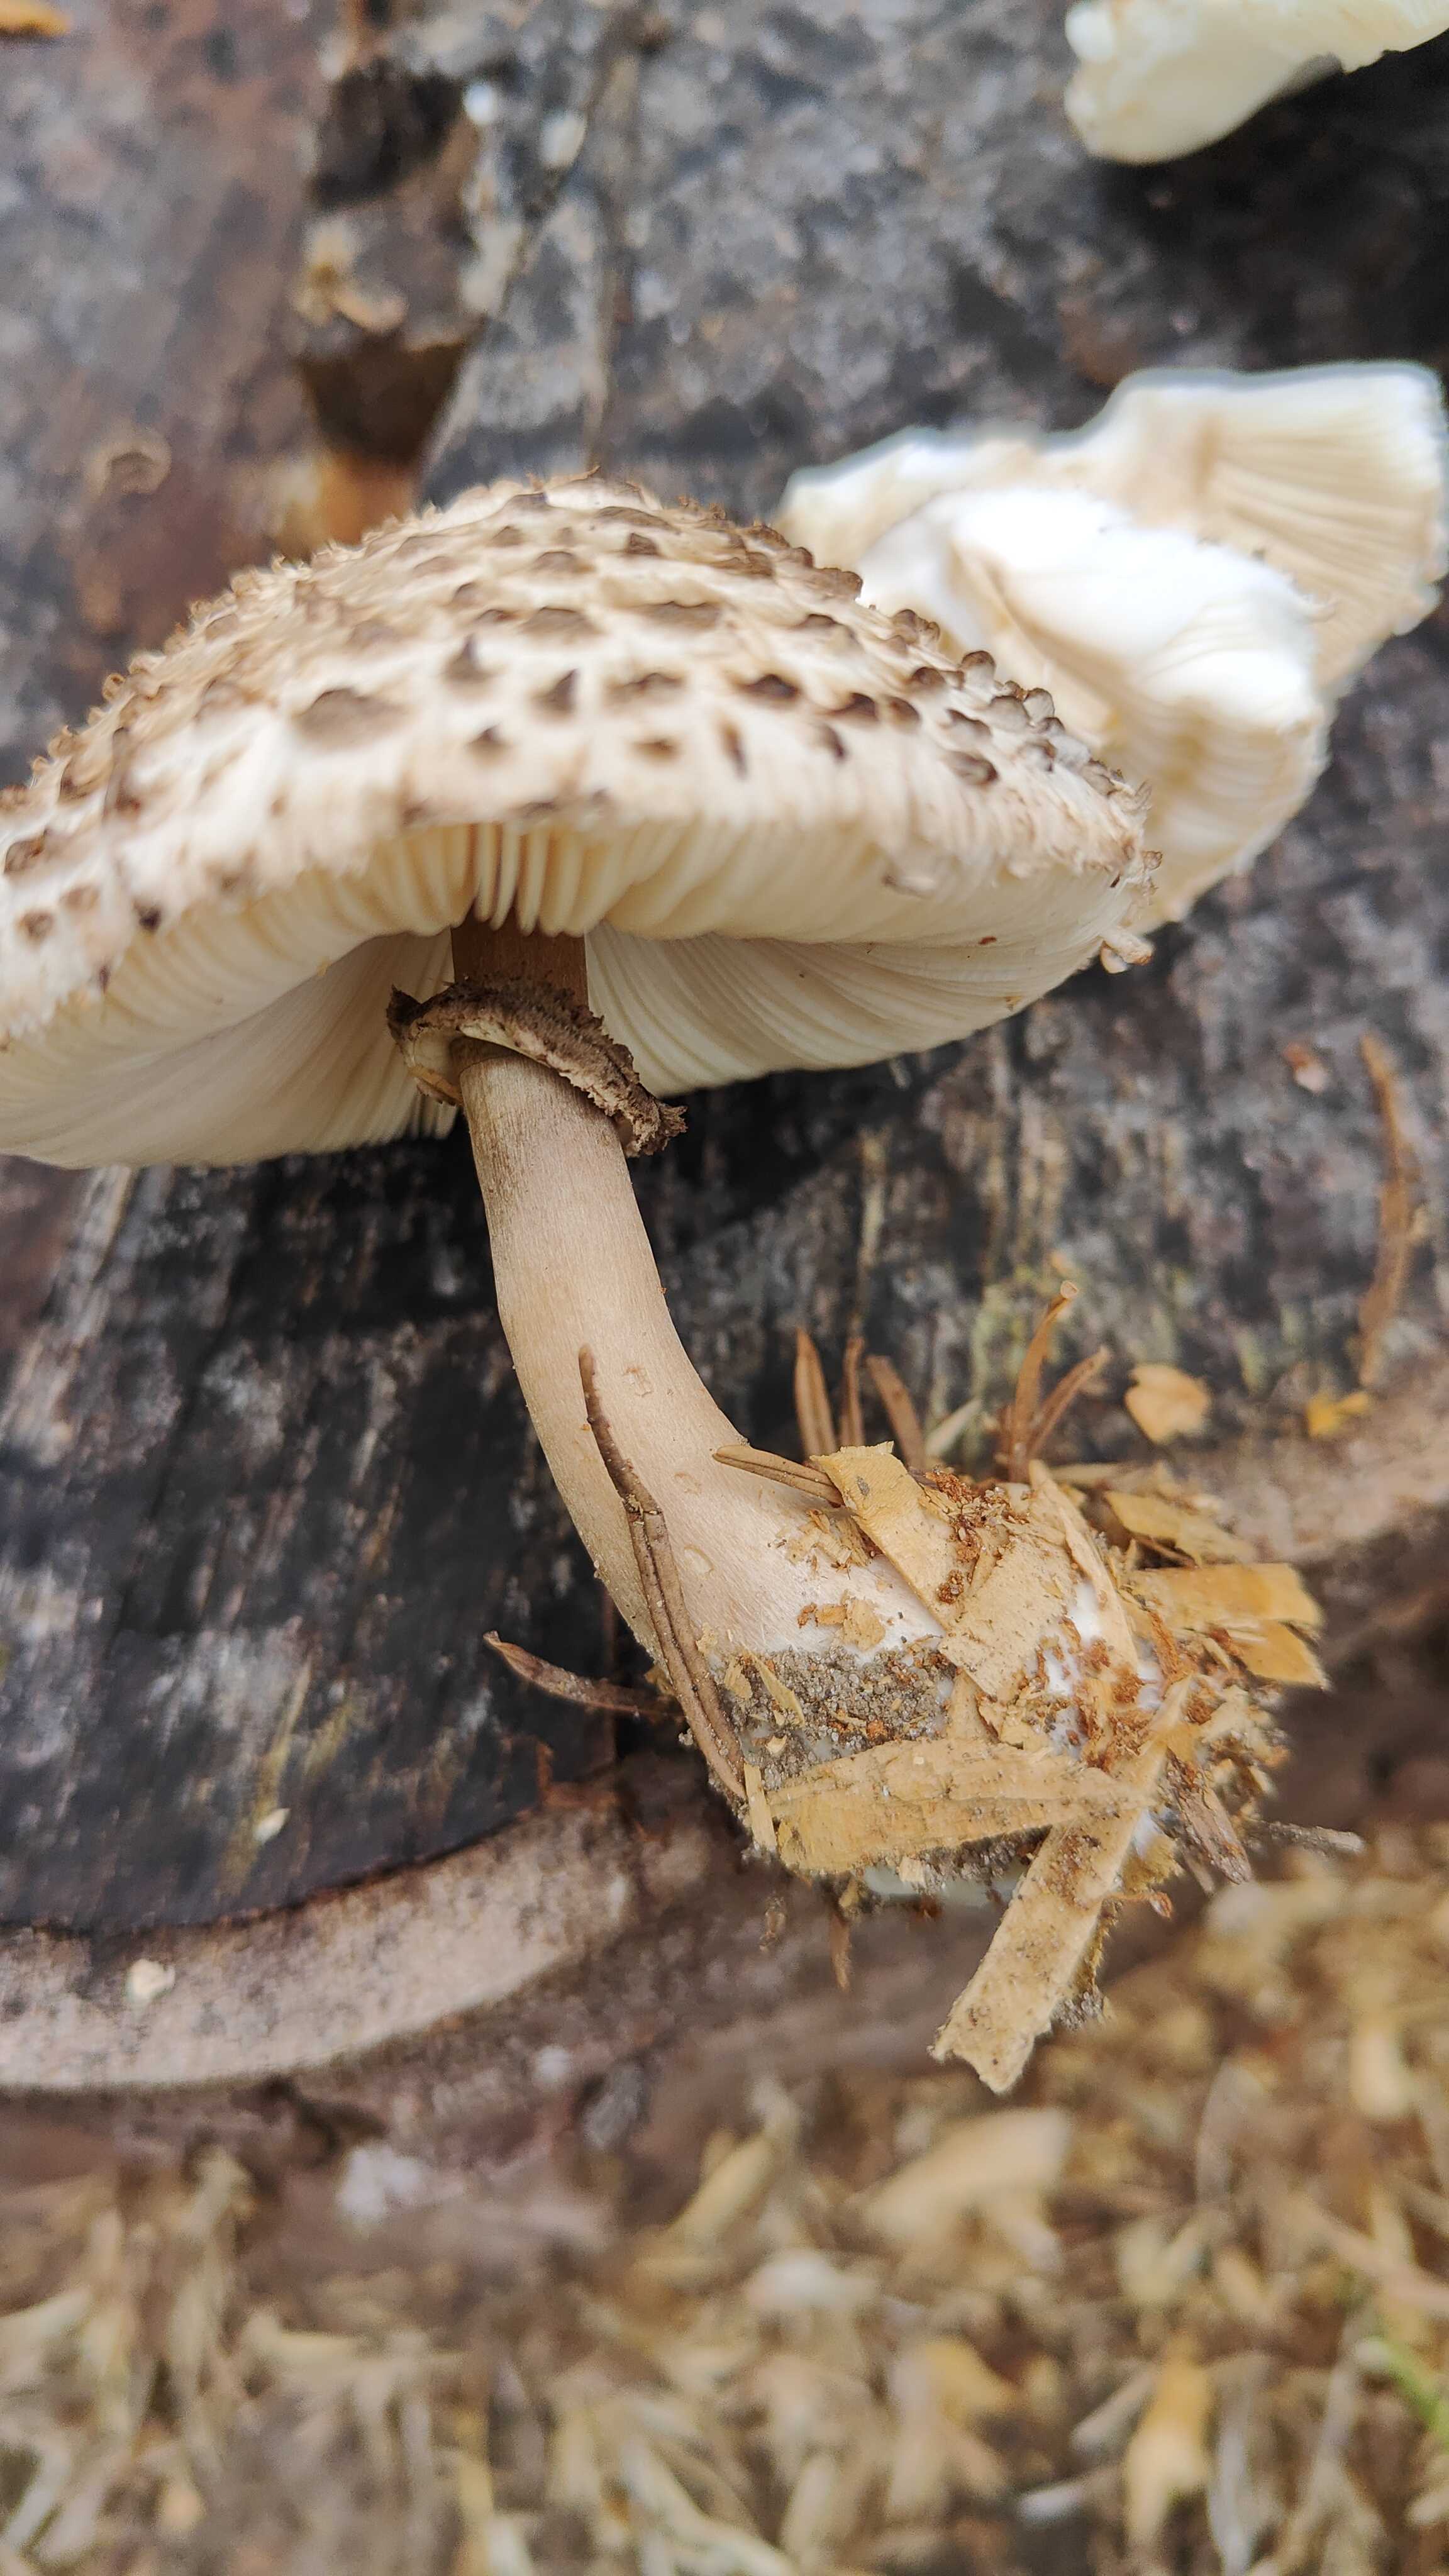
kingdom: Fungi
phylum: Basidiomycota
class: Agaricomycetes
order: Agaricales
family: Agaricaceae
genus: Leucoagaricus
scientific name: Leucoagaricus nympharum
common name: gran-silkehat
